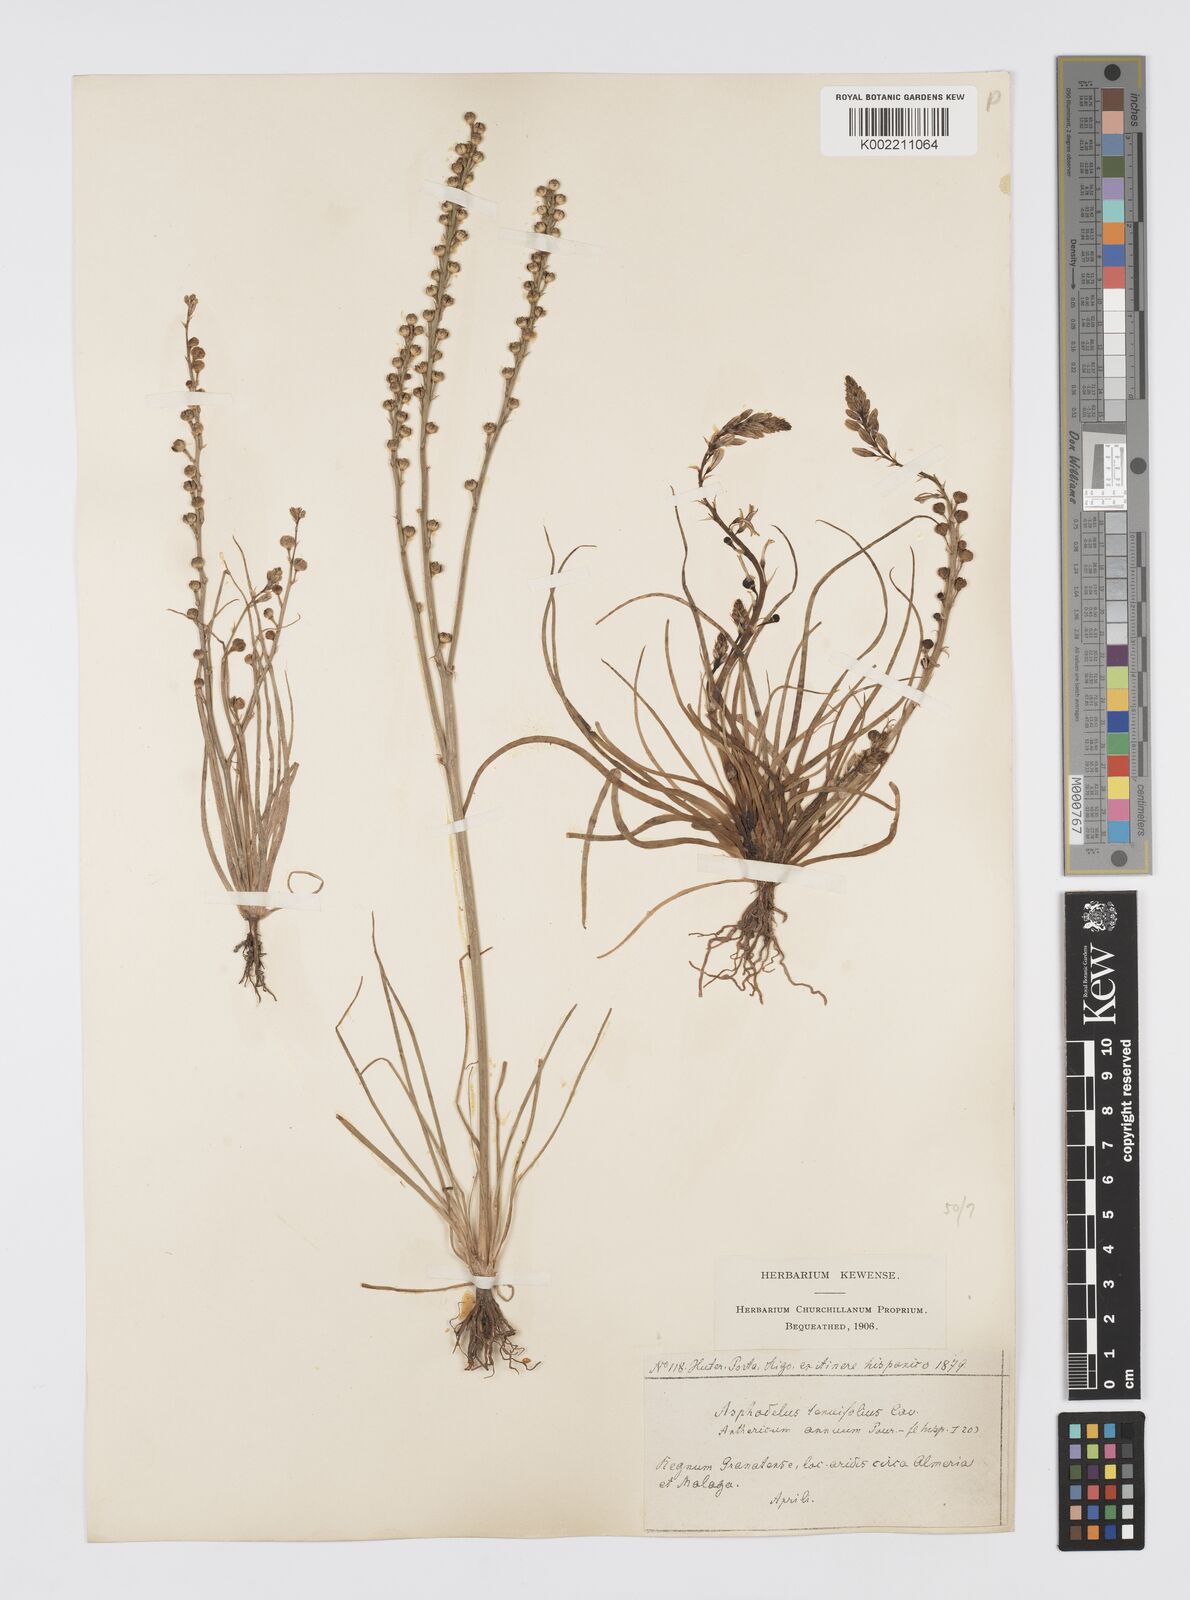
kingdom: Plantae
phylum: Tracheophyta
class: Liliopsida
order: Asparagales
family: Asphodelaceae
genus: Asphodelus
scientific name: Asphodelus tenuifolius
